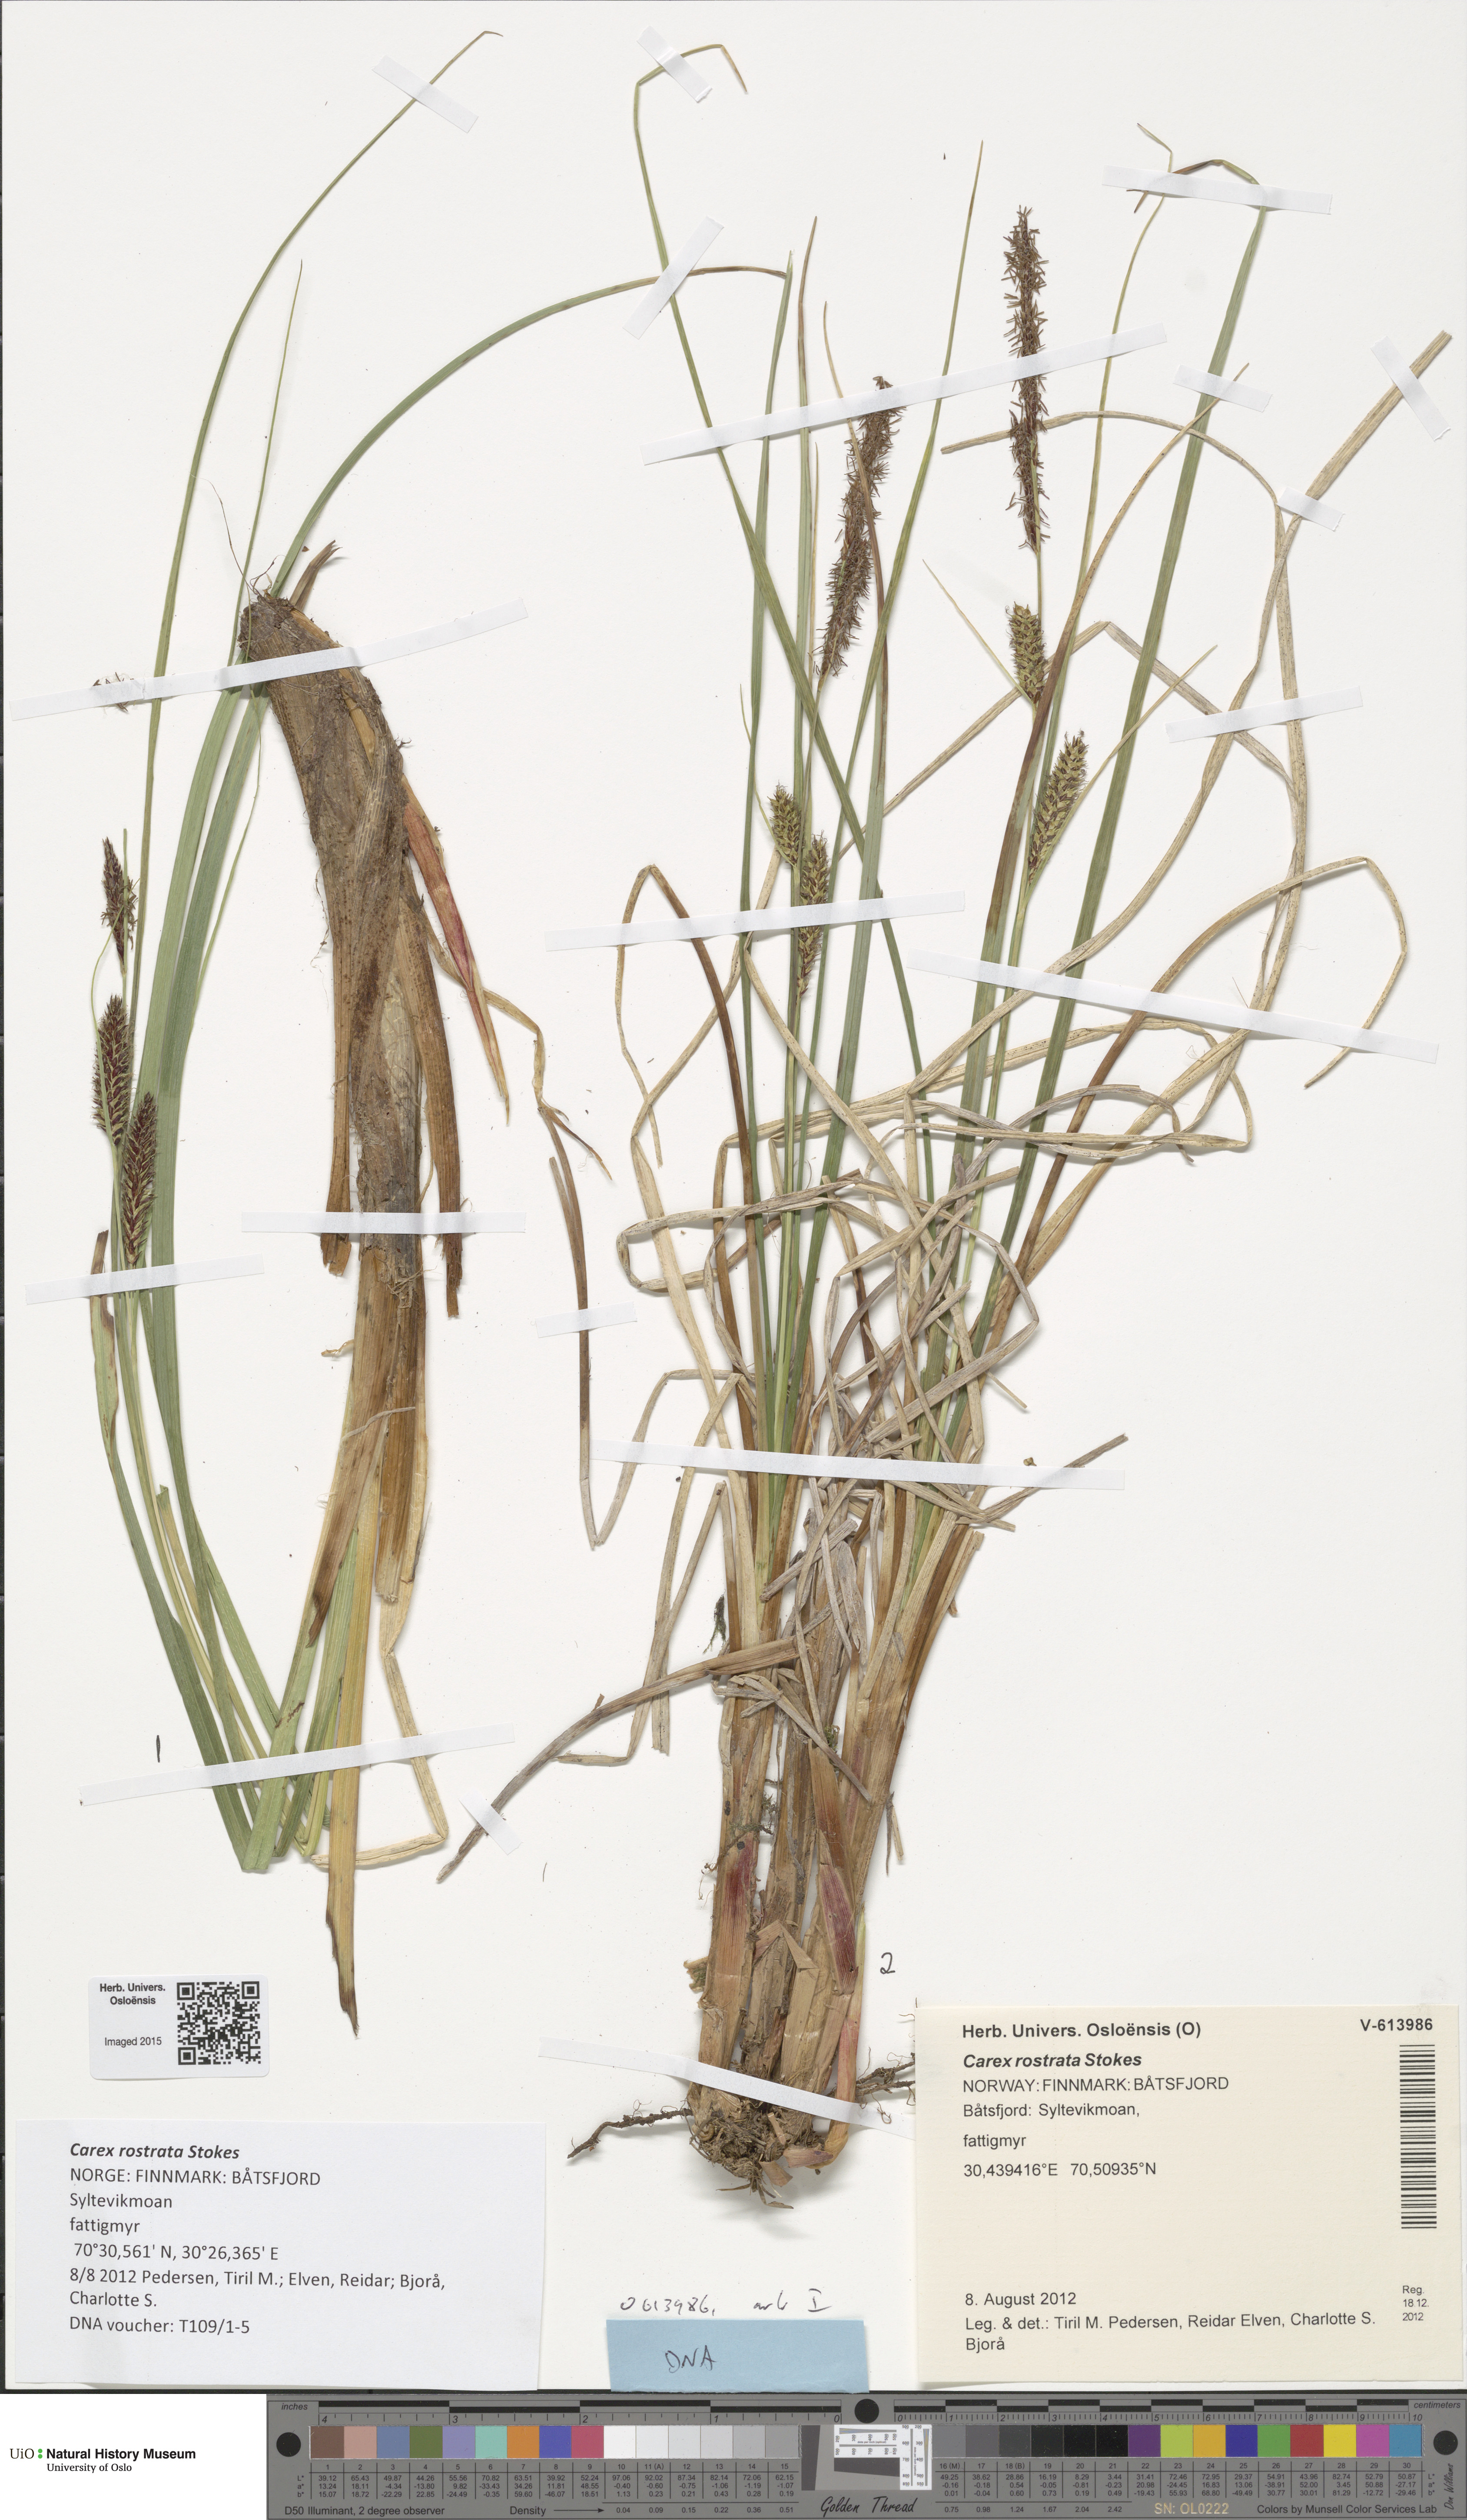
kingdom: Plantae
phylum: Tracheophyta
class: Liliopsida
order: Poales
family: Cyperaceae
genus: Carex
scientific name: Carex rostrata
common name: Bottle sedge
